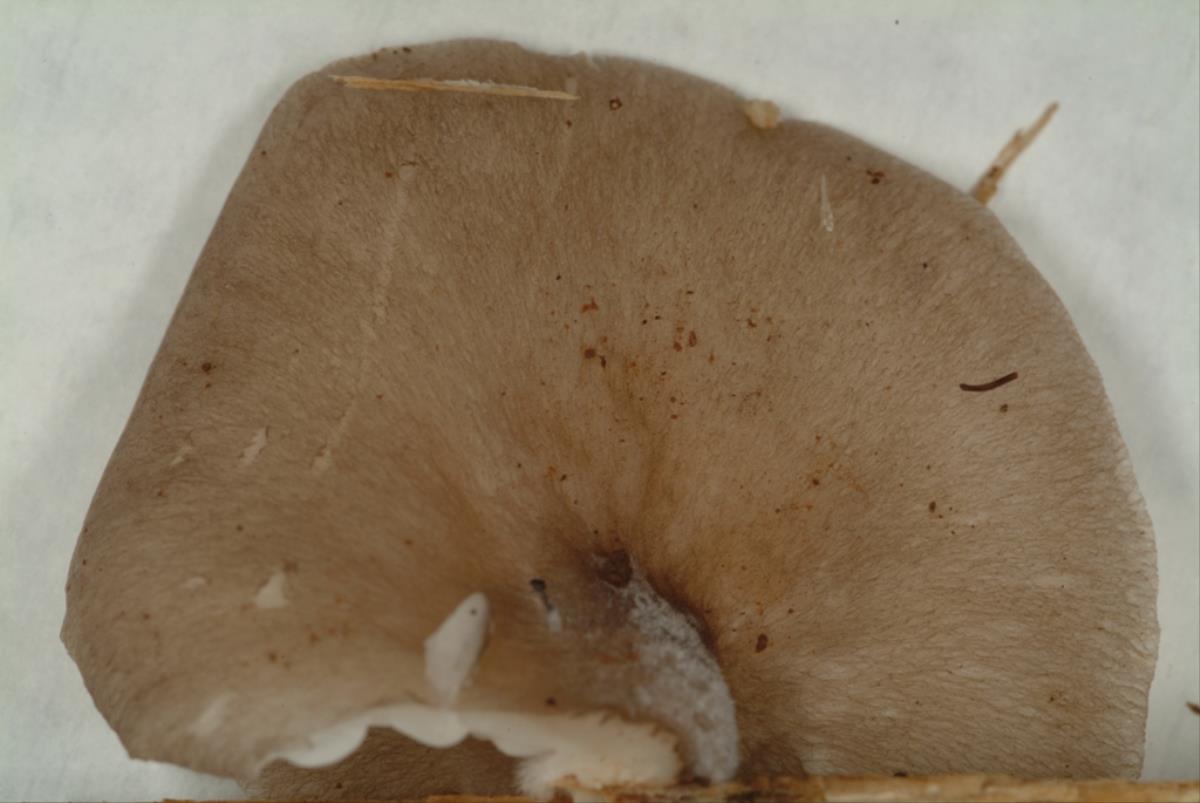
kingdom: Fungi
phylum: Basidiomycota
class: Agaricomycetes
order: Agaricales
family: Pleurotaceae
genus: Pleurotus
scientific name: Pleurotus djamor
